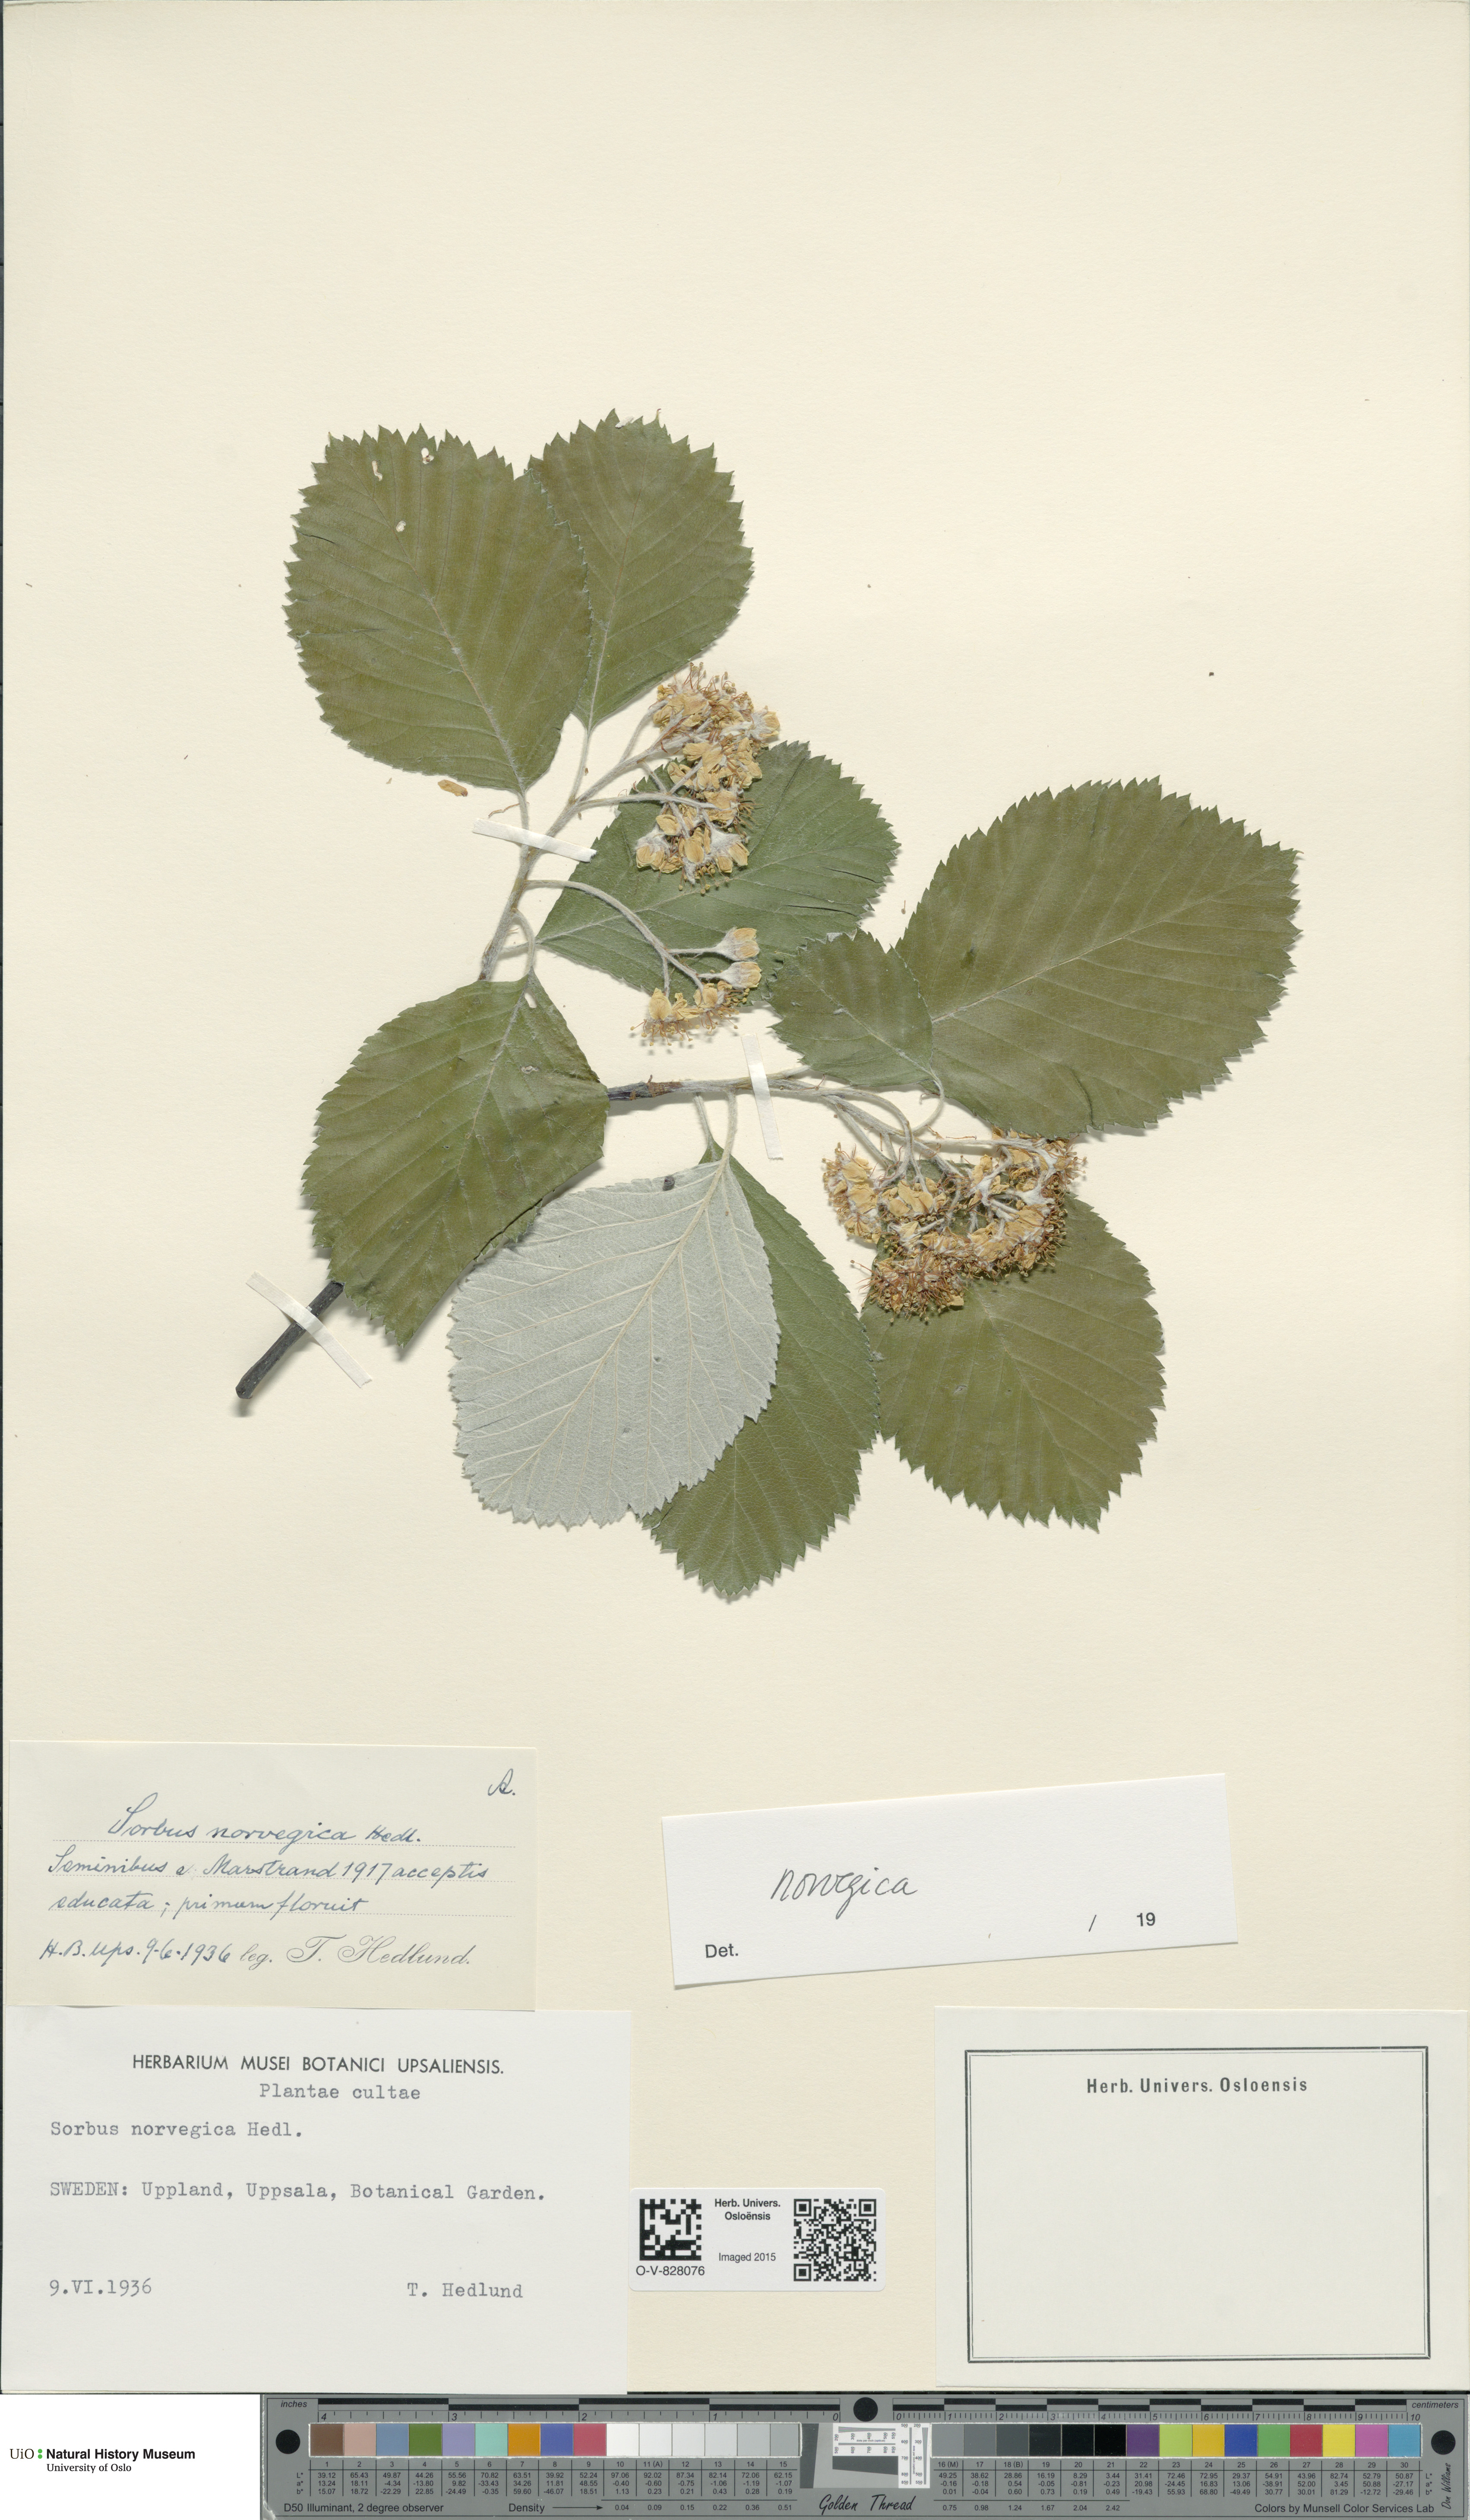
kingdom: Plantae
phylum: Tracheophyta
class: Magnoliopsida
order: Rosales
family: Rosaceae
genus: Aria
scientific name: Aria obtusifolia
